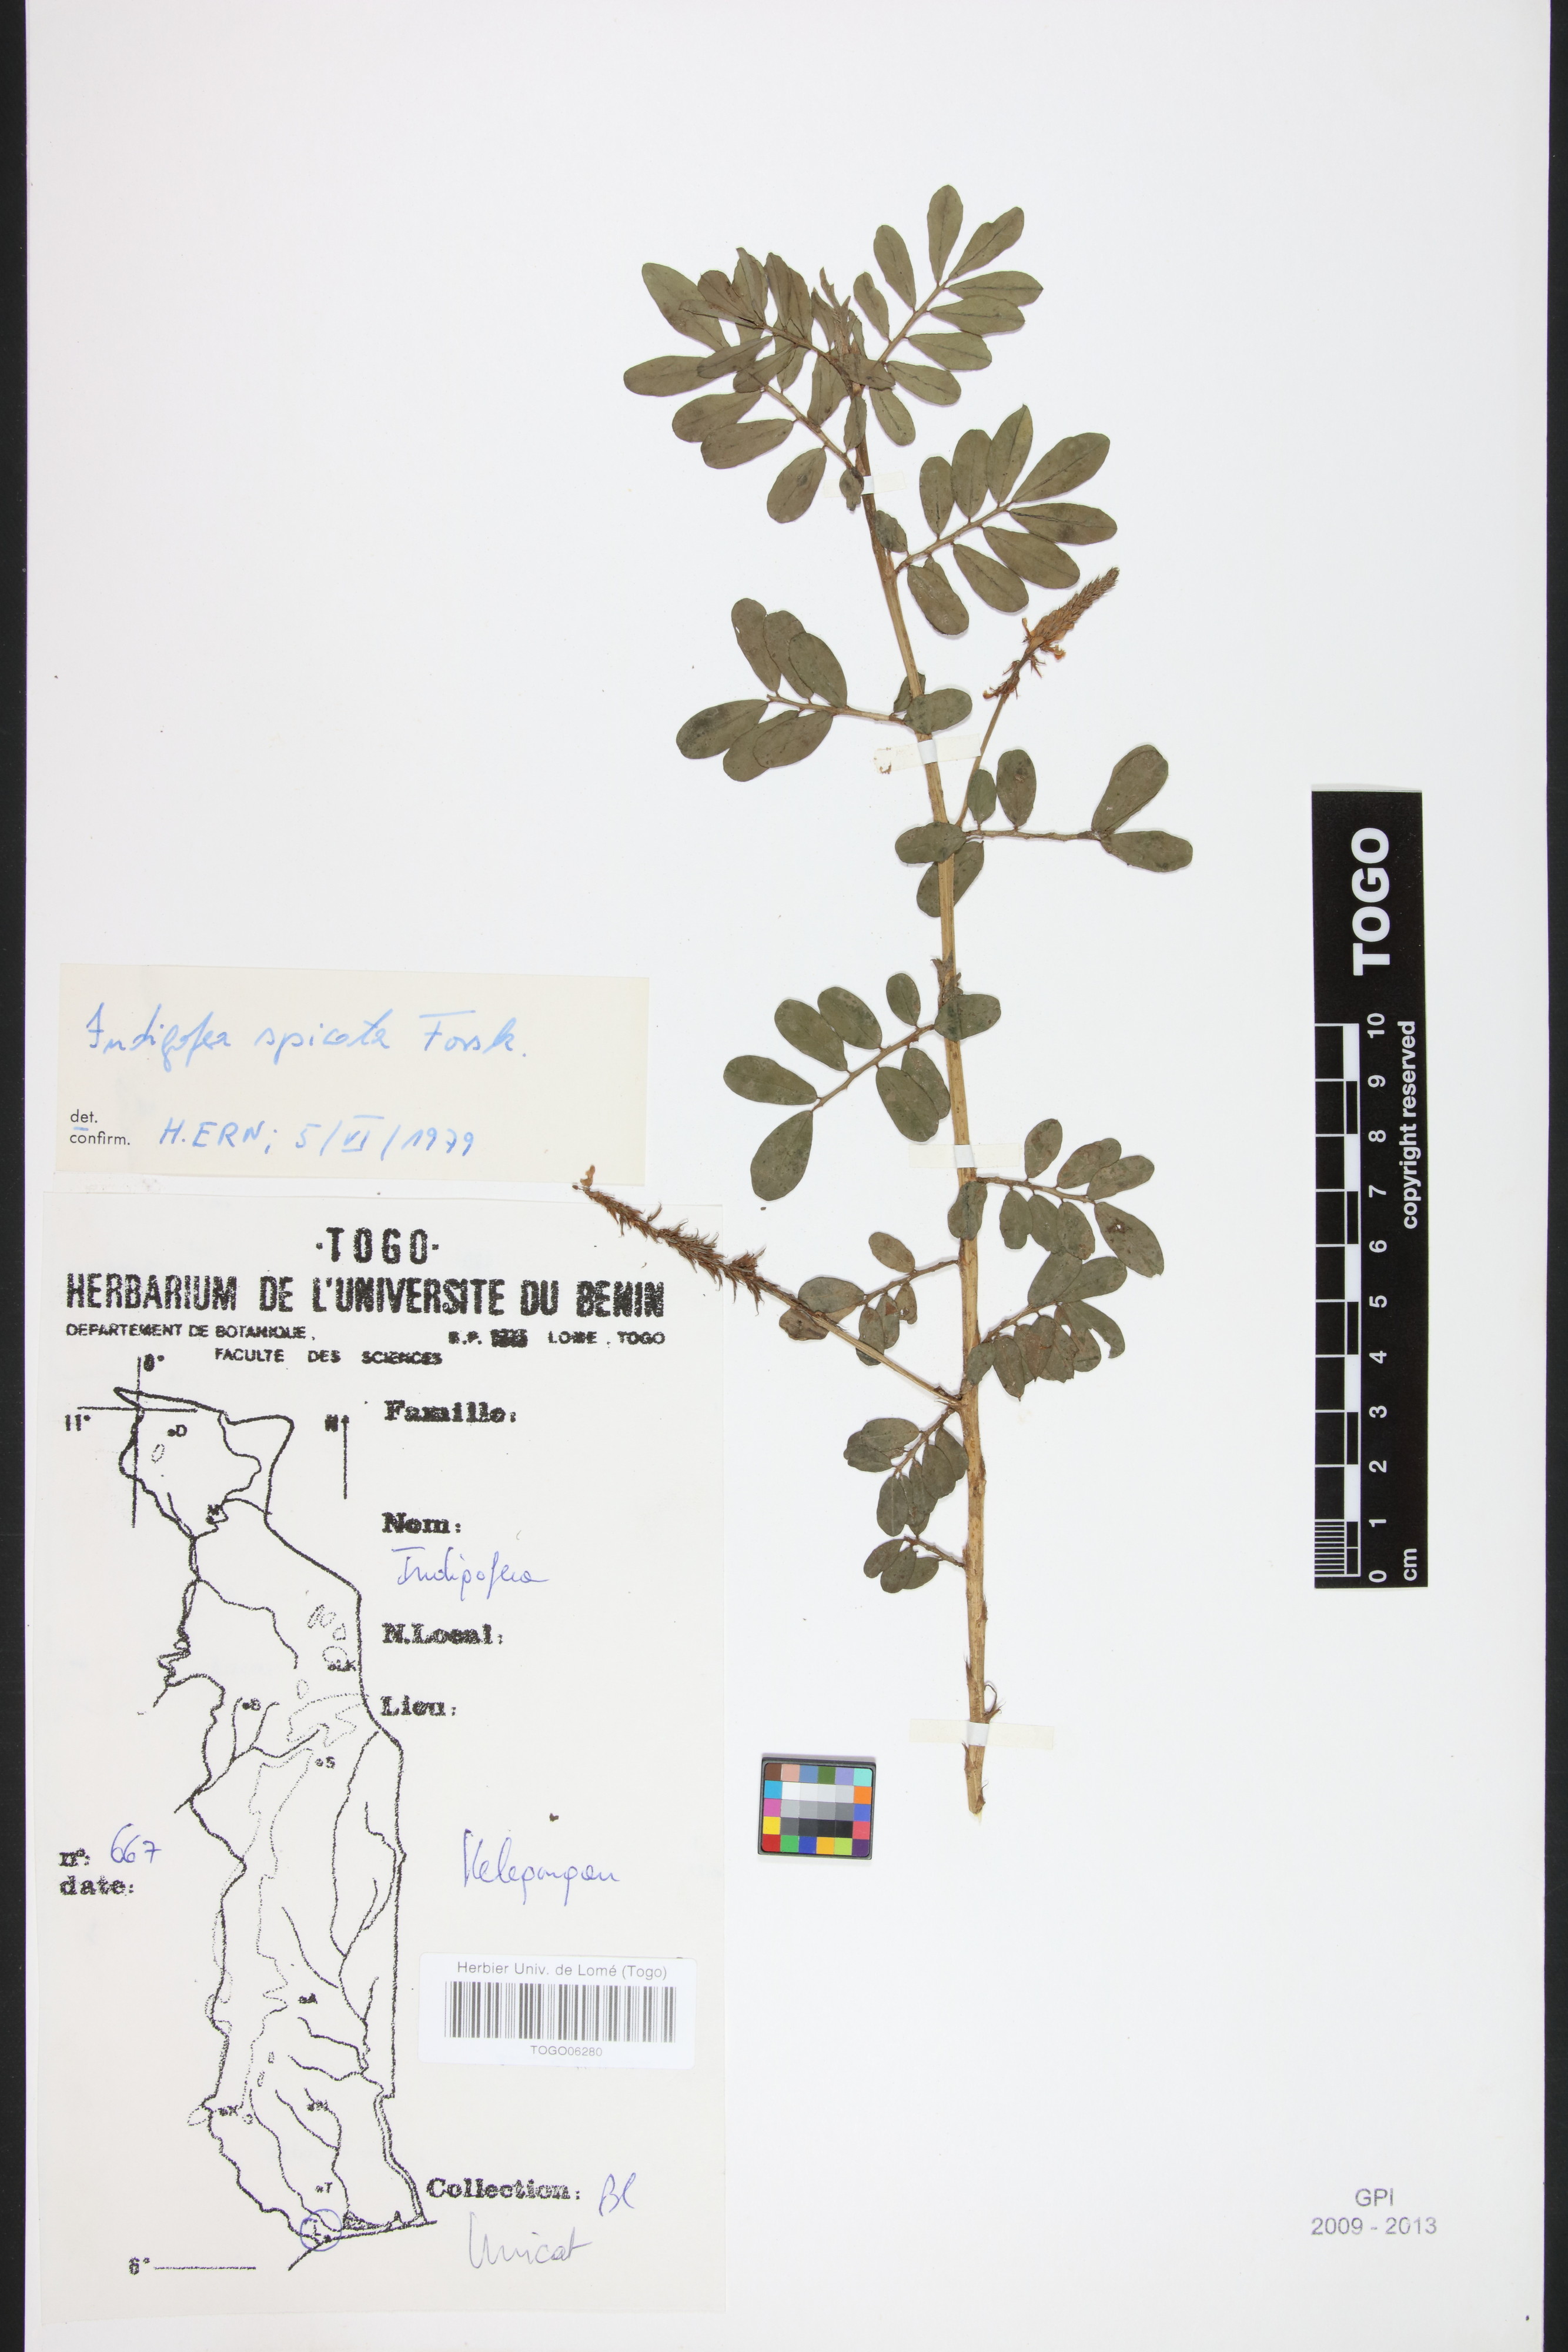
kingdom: Plantae
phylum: Tracheophyta
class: Magnoliopsida
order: Fabales
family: Fabaceae
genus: Indigofera
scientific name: Indigofera spicata
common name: Creeping indigo
